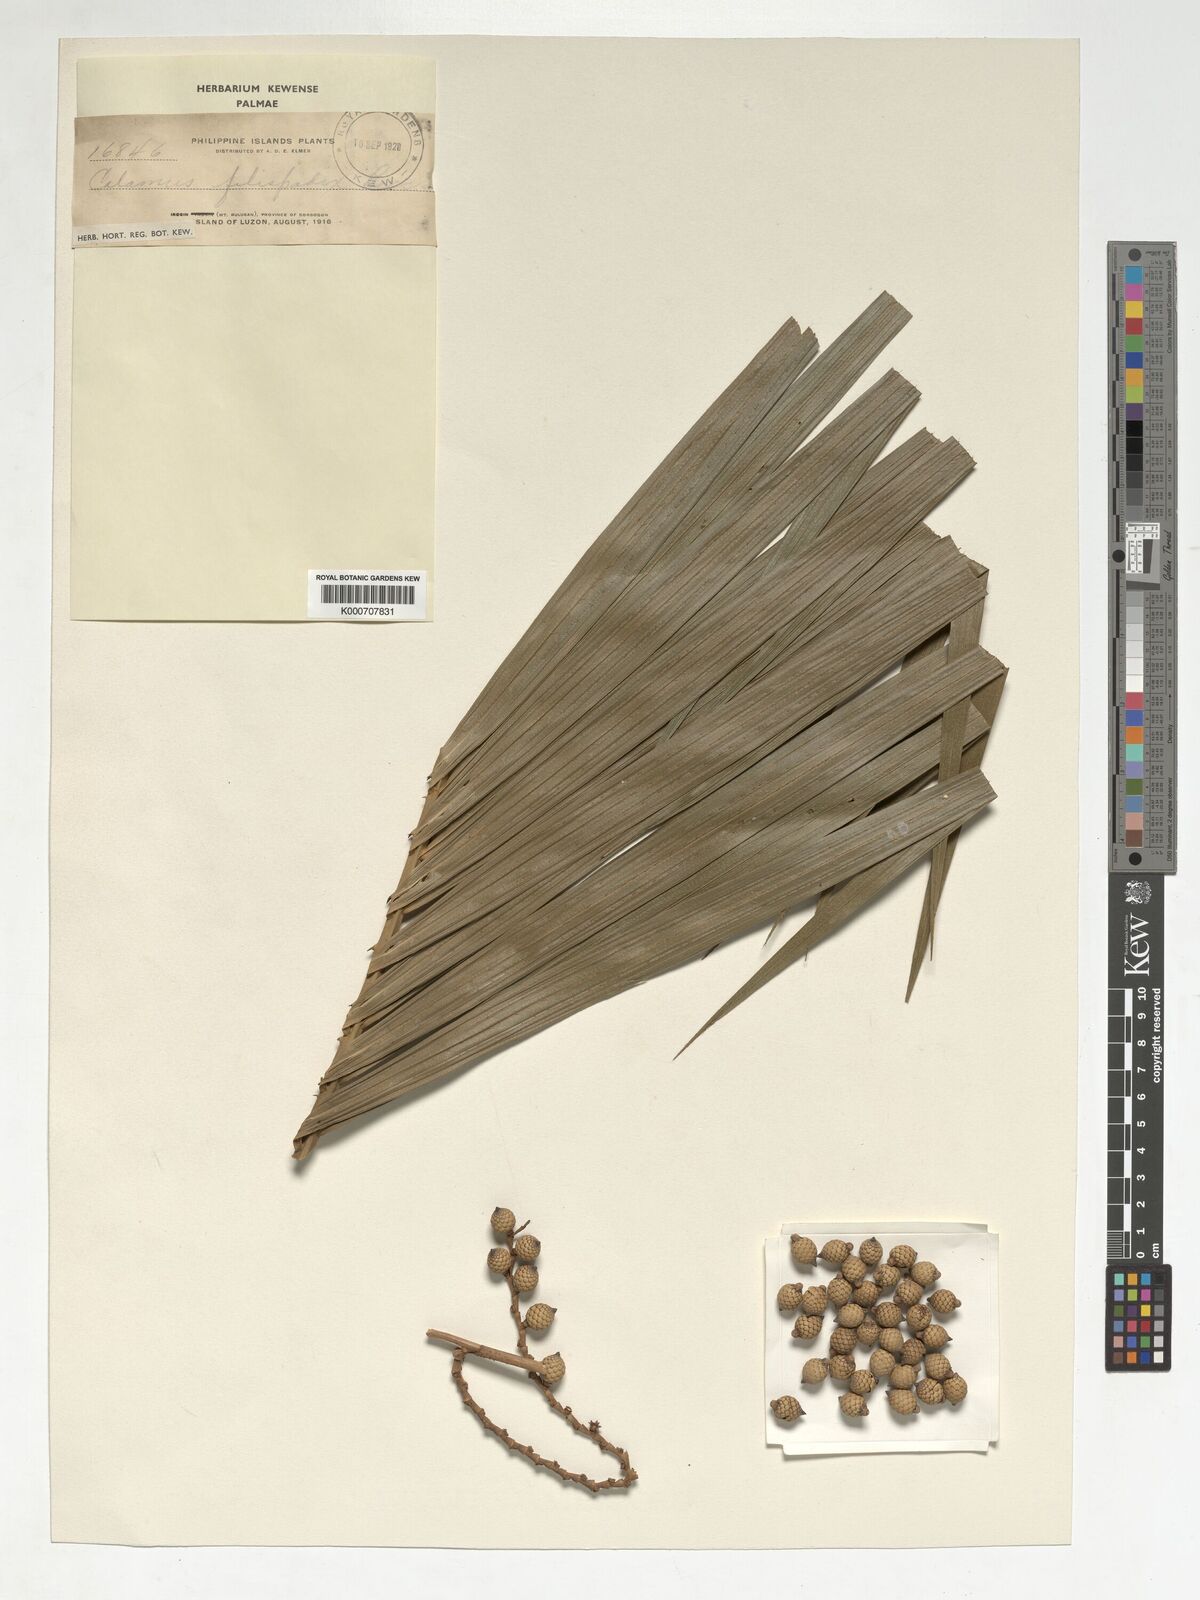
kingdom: Plantae
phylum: Tracheophyta
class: Liliopsida
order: Arecales
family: Arecaceae
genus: Calamus
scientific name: Calamus filispadix
